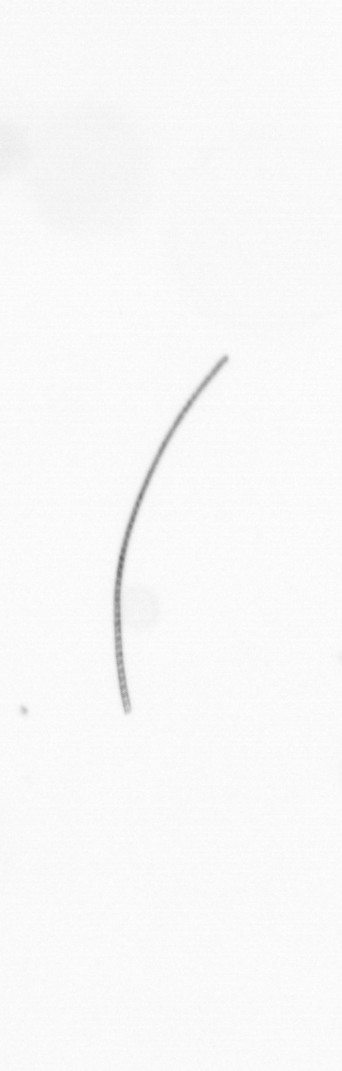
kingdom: Chromista
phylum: Ochrophyta
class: Bacillariophyceae
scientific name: Bacillariophyceae
